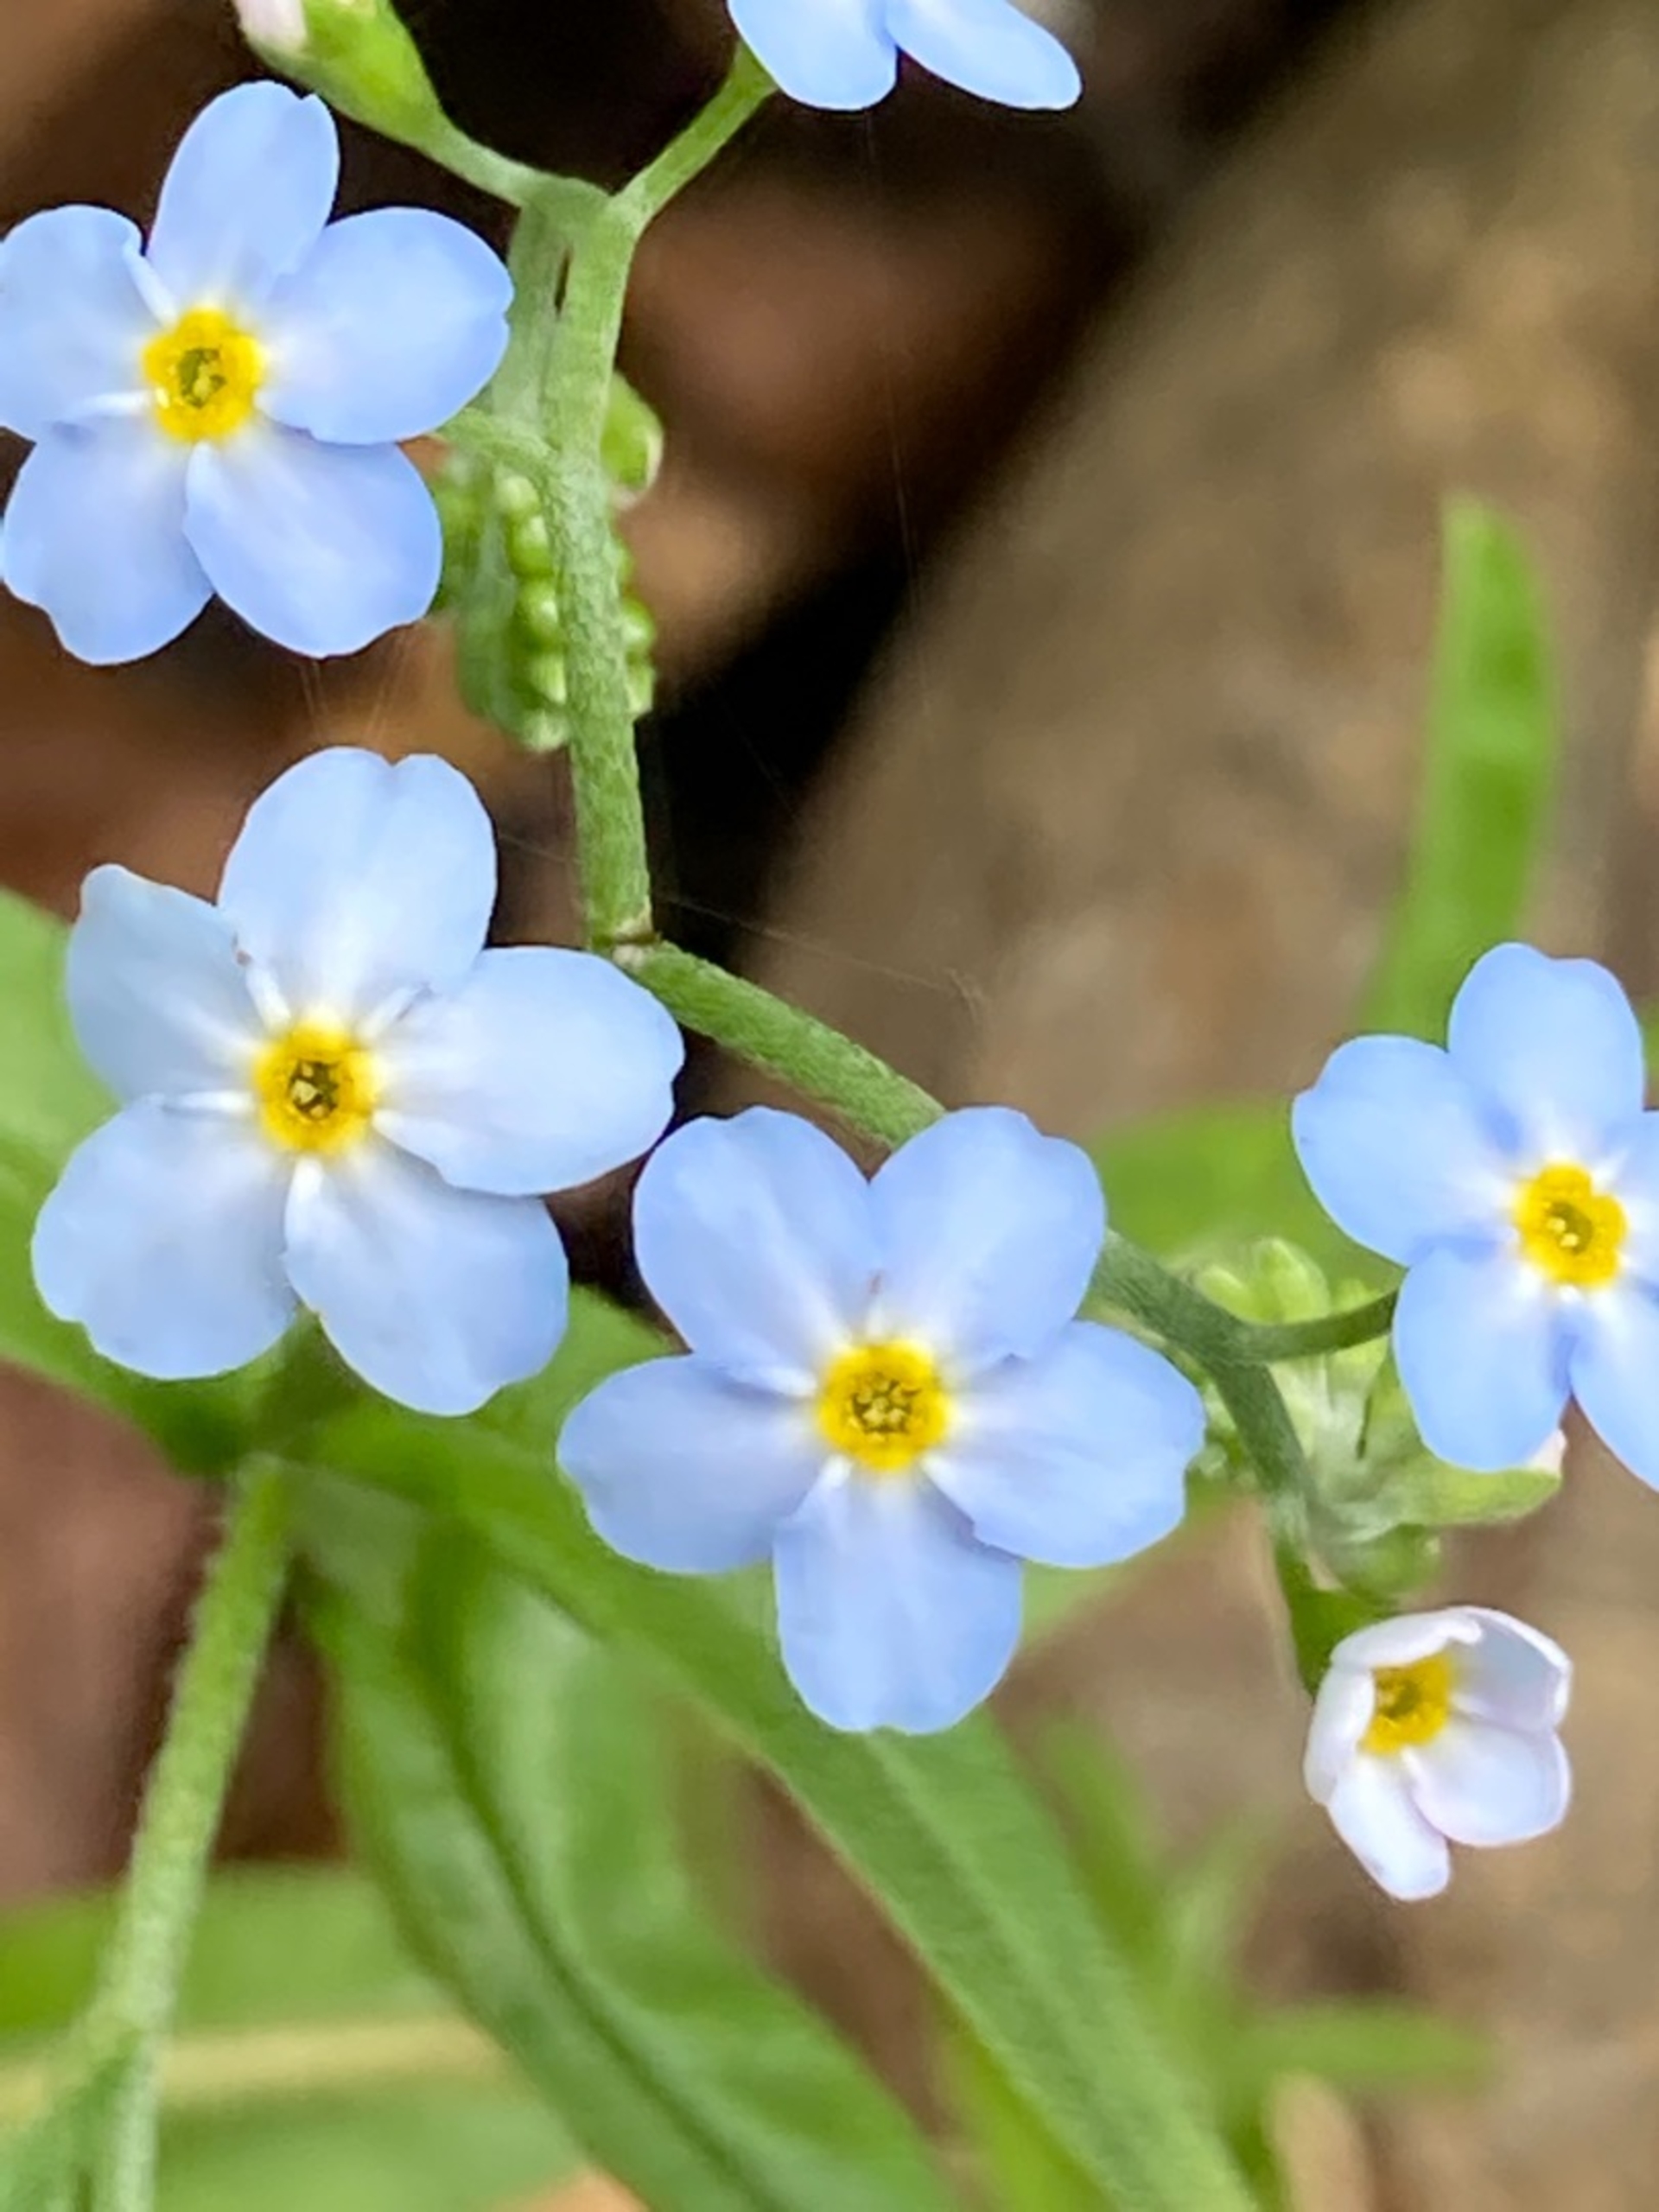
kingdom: Plantae
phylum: Tracheophyta
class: Magnoliopsida
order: Boraginales
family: Boraginaceae
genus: Myosotis
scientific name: Myosotis scorpioides
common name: Eng-forglemmigej
